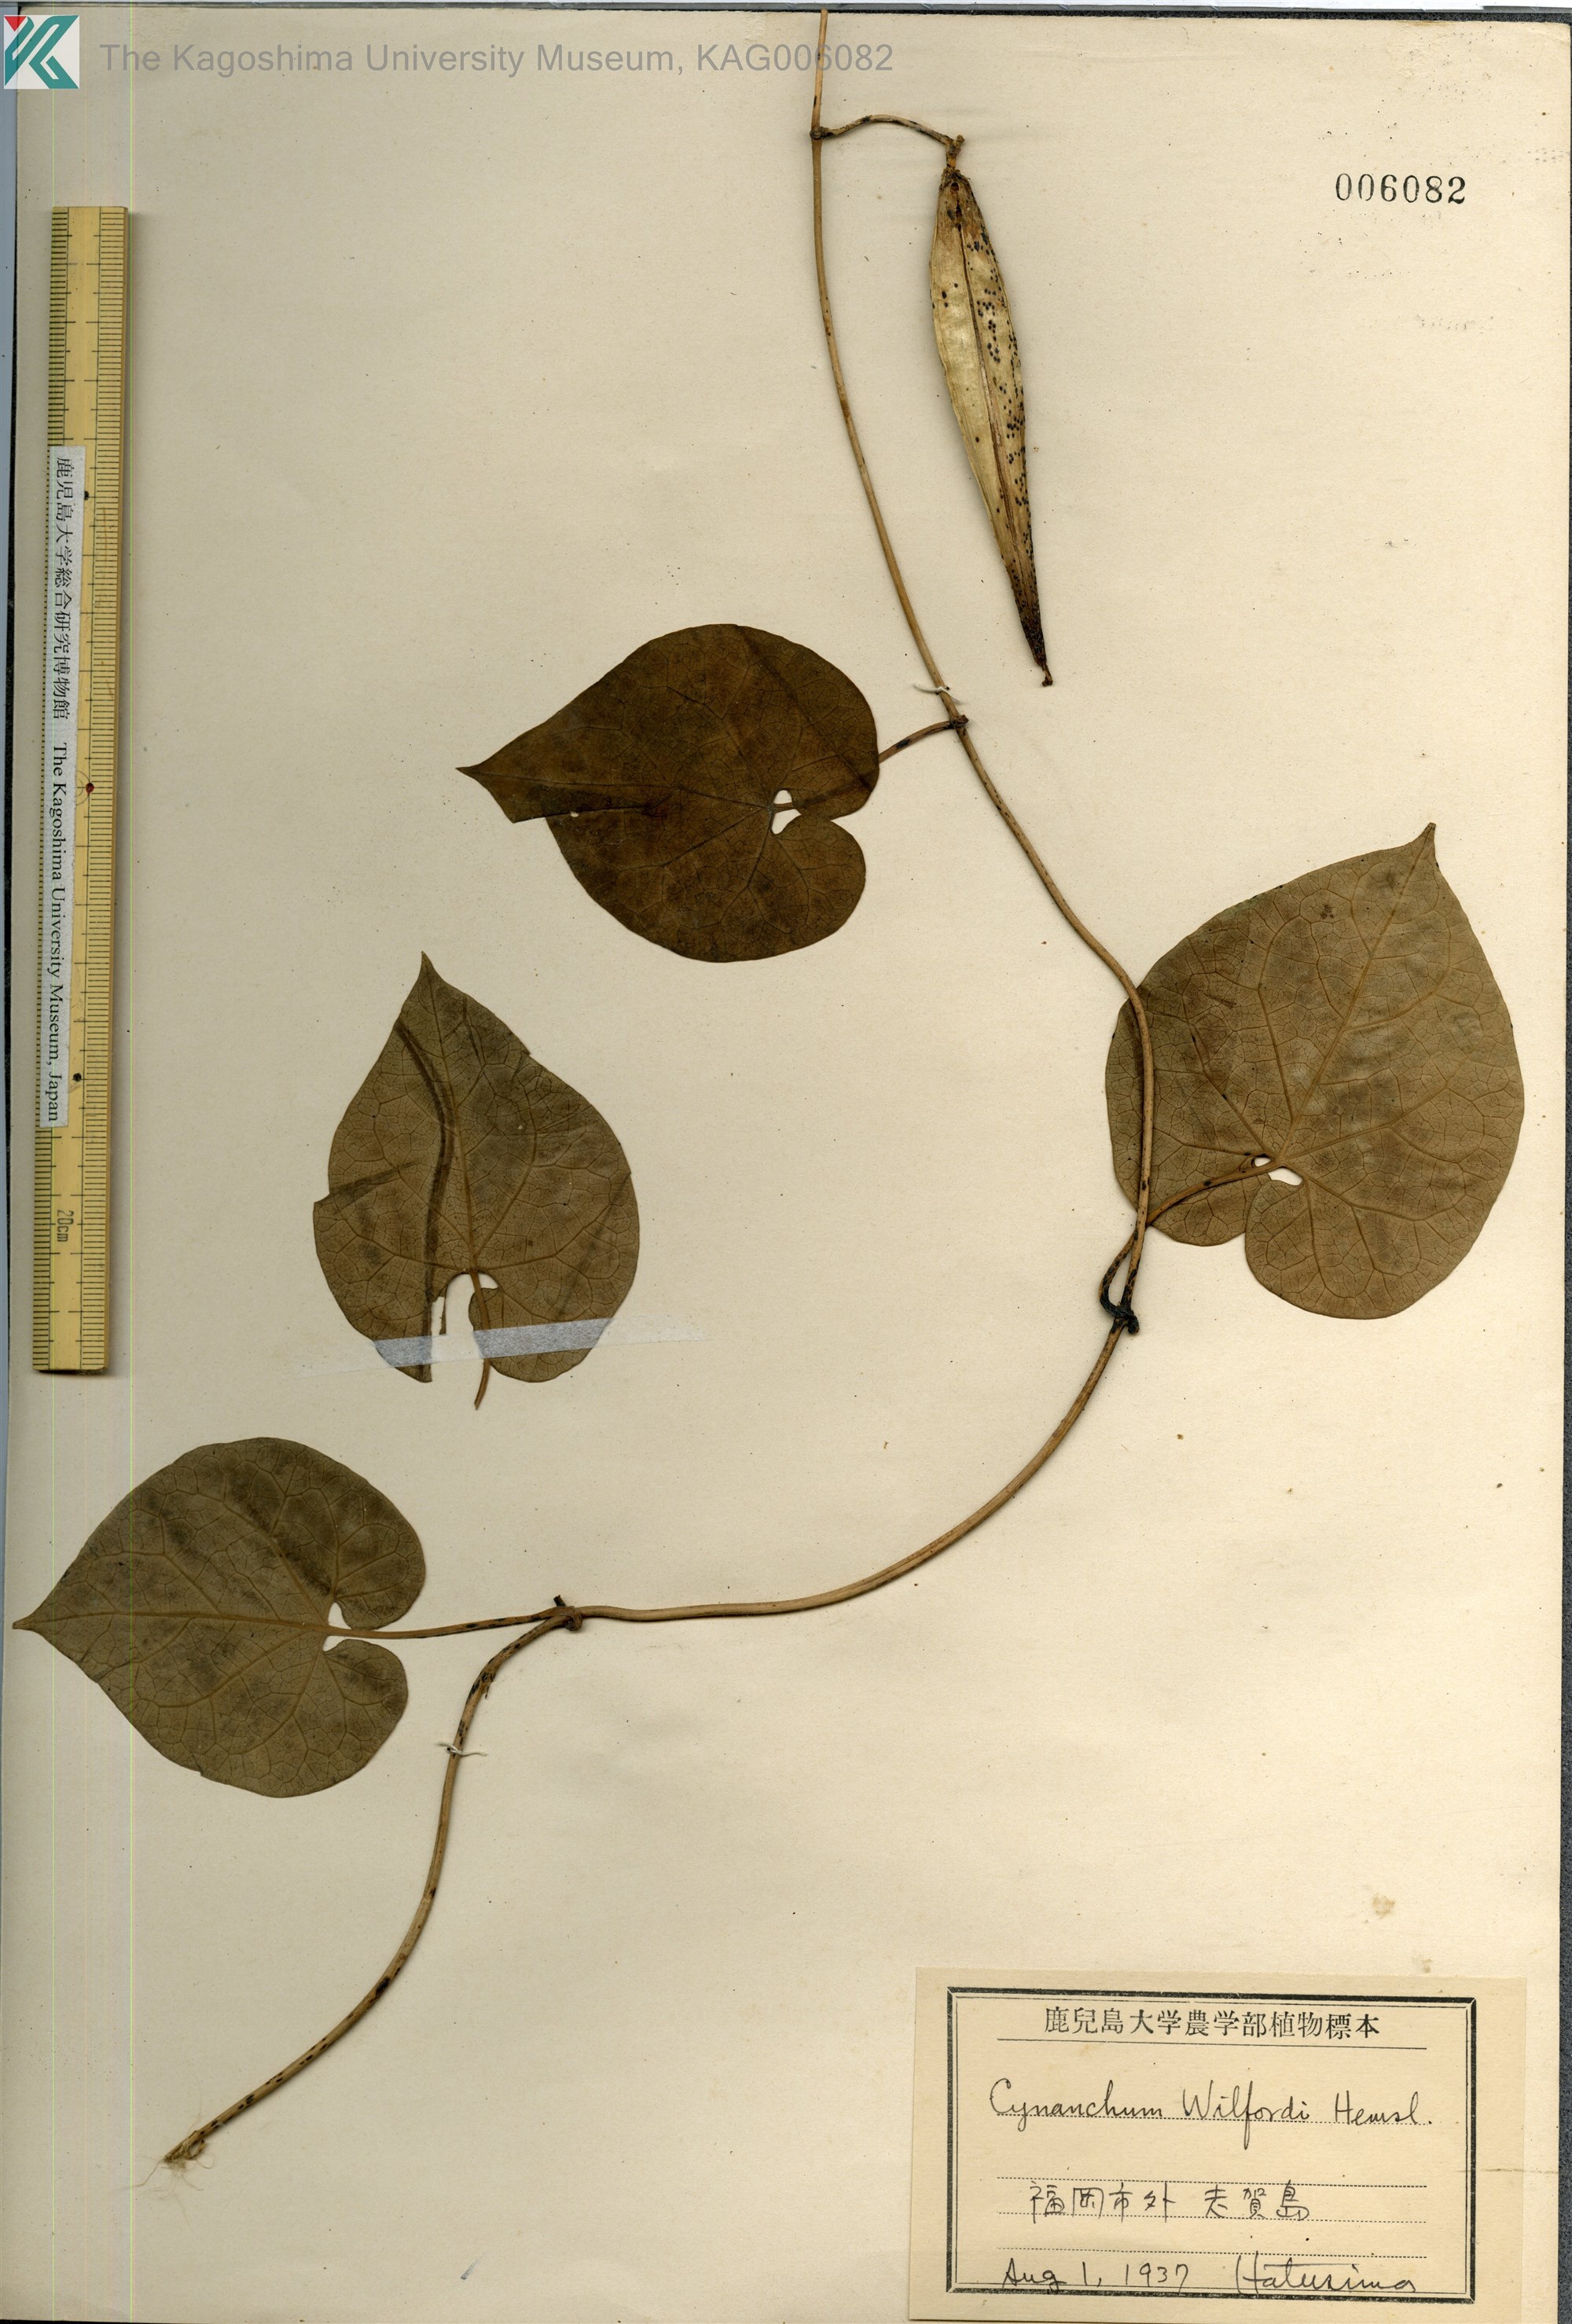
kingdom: Plantae
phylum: Tracheophyta
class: Magnoliopsida
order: Gentianales
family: Apocynaceae
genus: Cynanchum
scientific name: Cynanchum wilfordii
